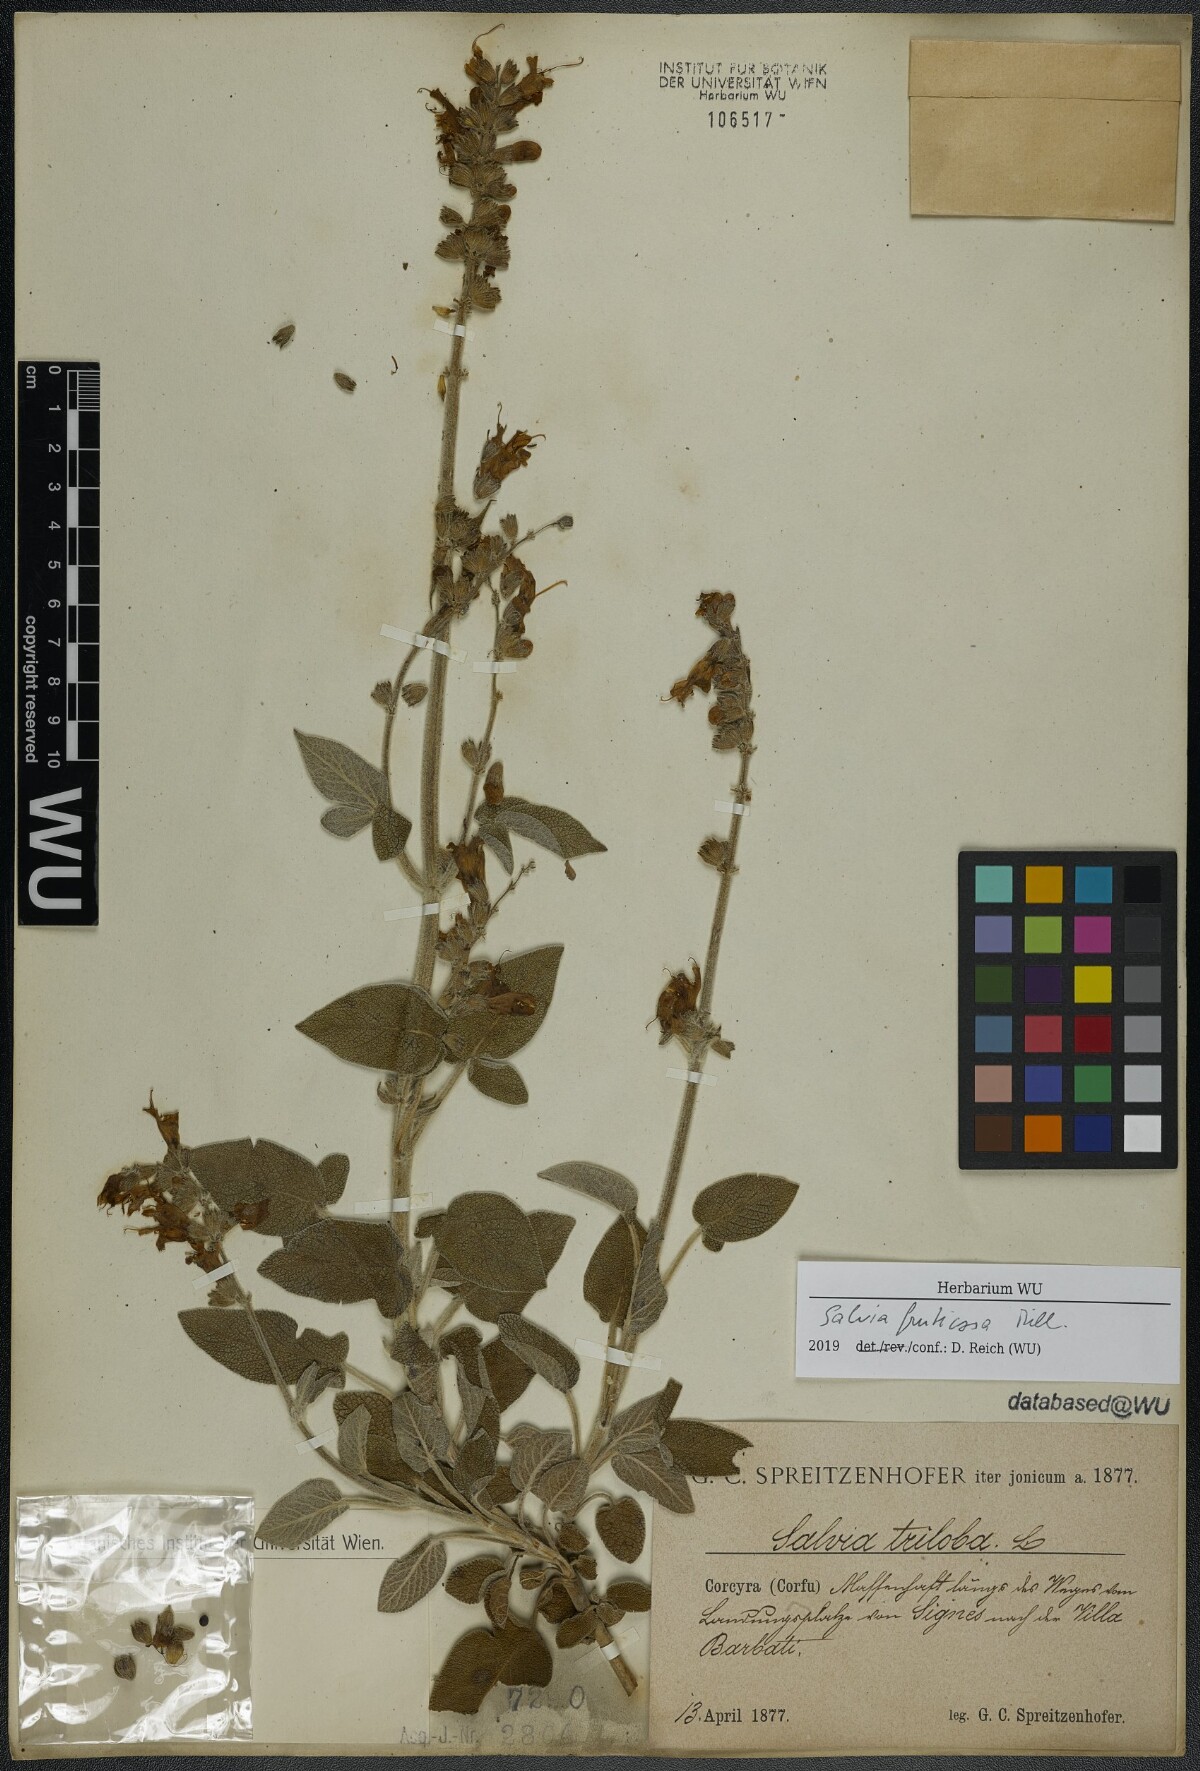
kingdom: Plantae
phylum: Tracheophyta
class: Magnoliopsida
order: Lamiales
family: Lamiaceae
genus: Salvia
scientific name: Salvia fruticosa
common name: Greek sage
